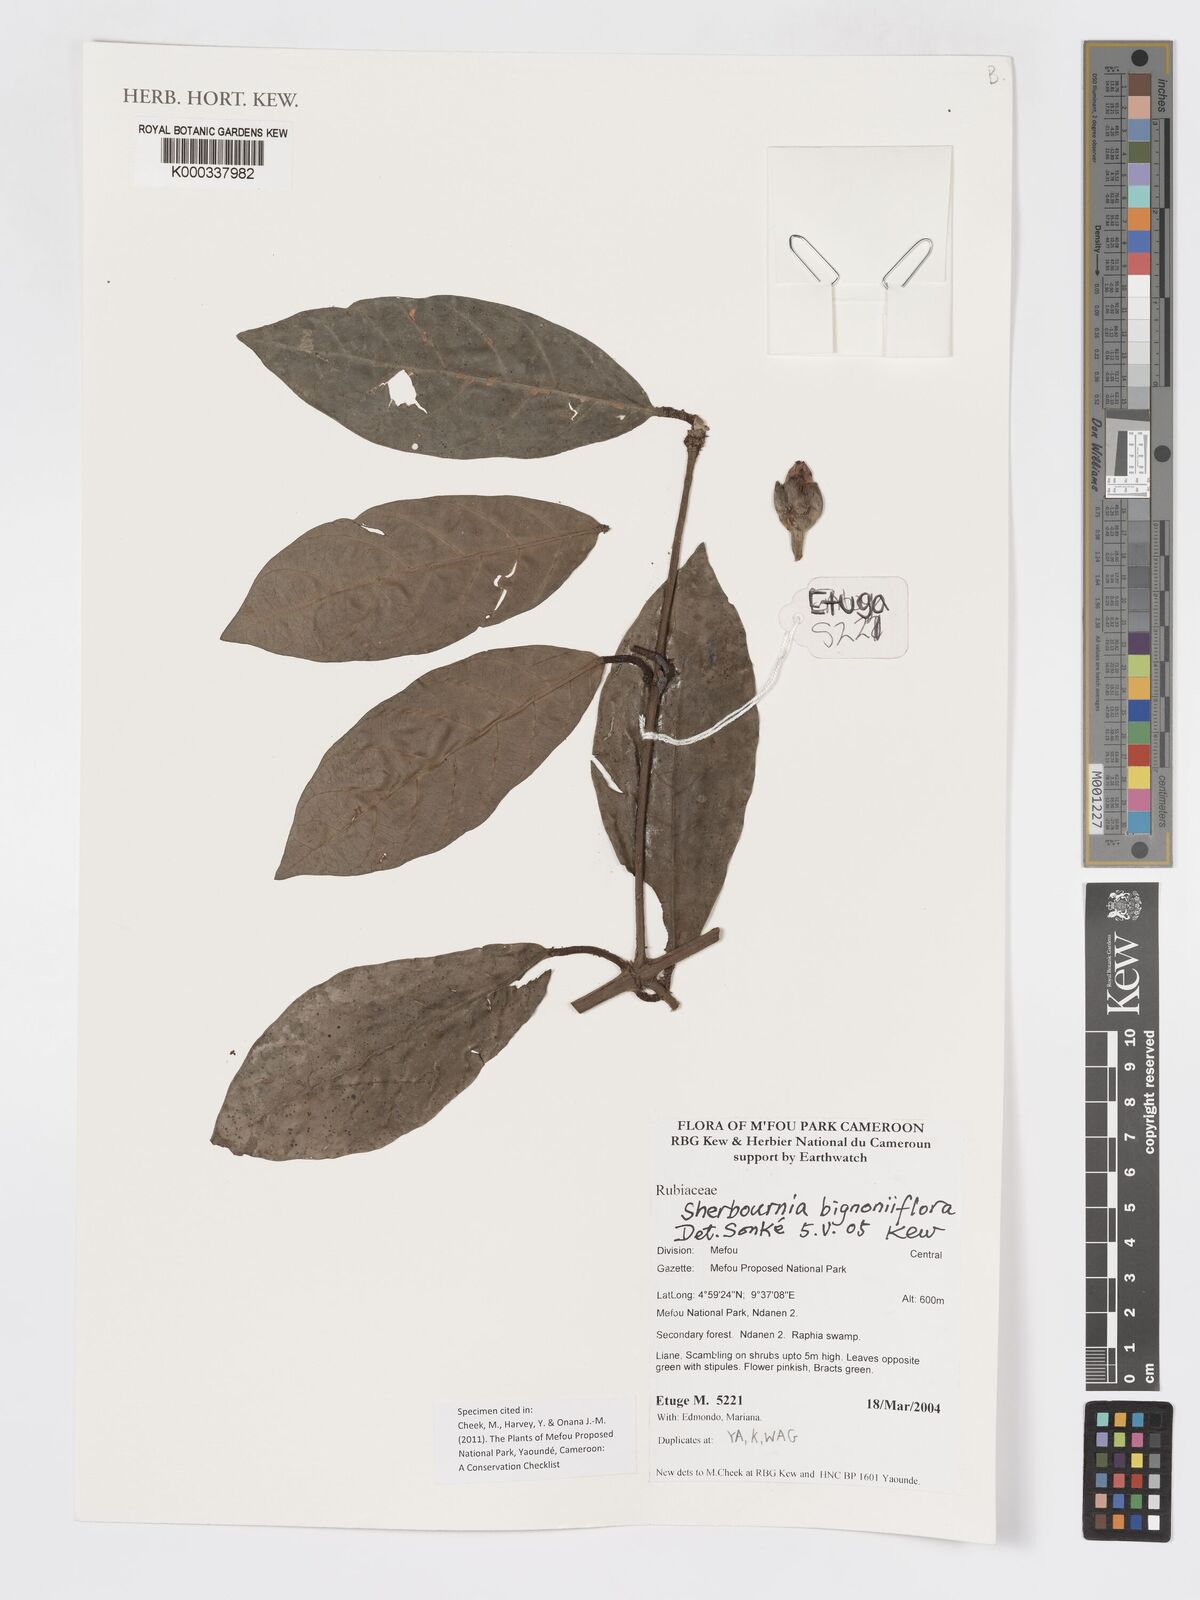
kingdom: Plantae
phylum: Tracheophyta
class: Magnoliopsida
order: Gentianales
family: Rubiaceae
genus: Sherbournia
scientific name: Sherbournia bignoniiflora
